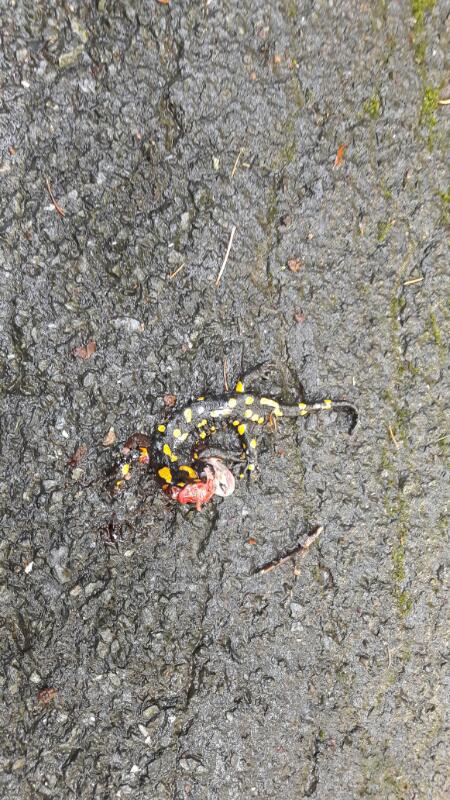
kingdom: Animalia
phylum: Chordata
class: Amphibia
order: Caudata
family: Salamandridae
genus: Salamandra
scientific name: Salamandra salamandra
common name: Fire salamander
